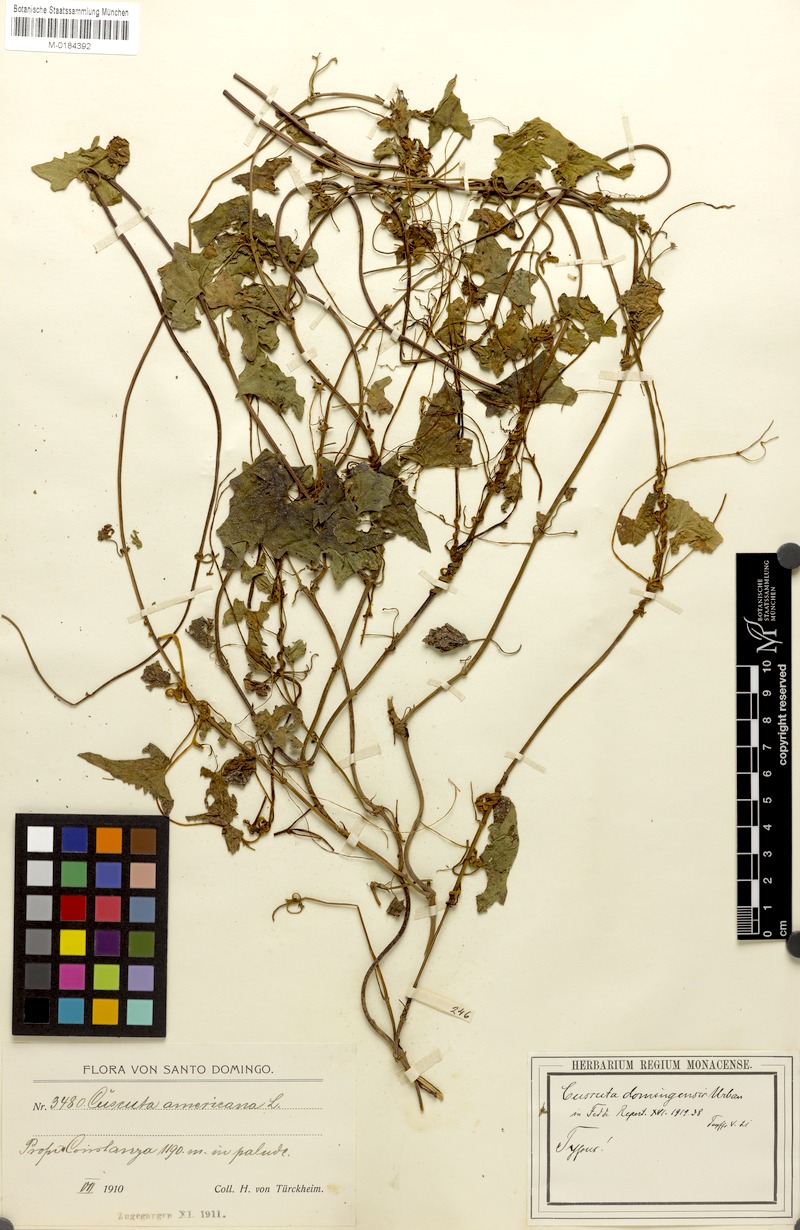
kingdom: Plantae
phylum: Tracheophyta
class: Magnoliopsida
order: Solanales
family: Convolvulaceae
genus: Cuscuta
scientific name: Cuscuta gronovii
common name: Common dodder
